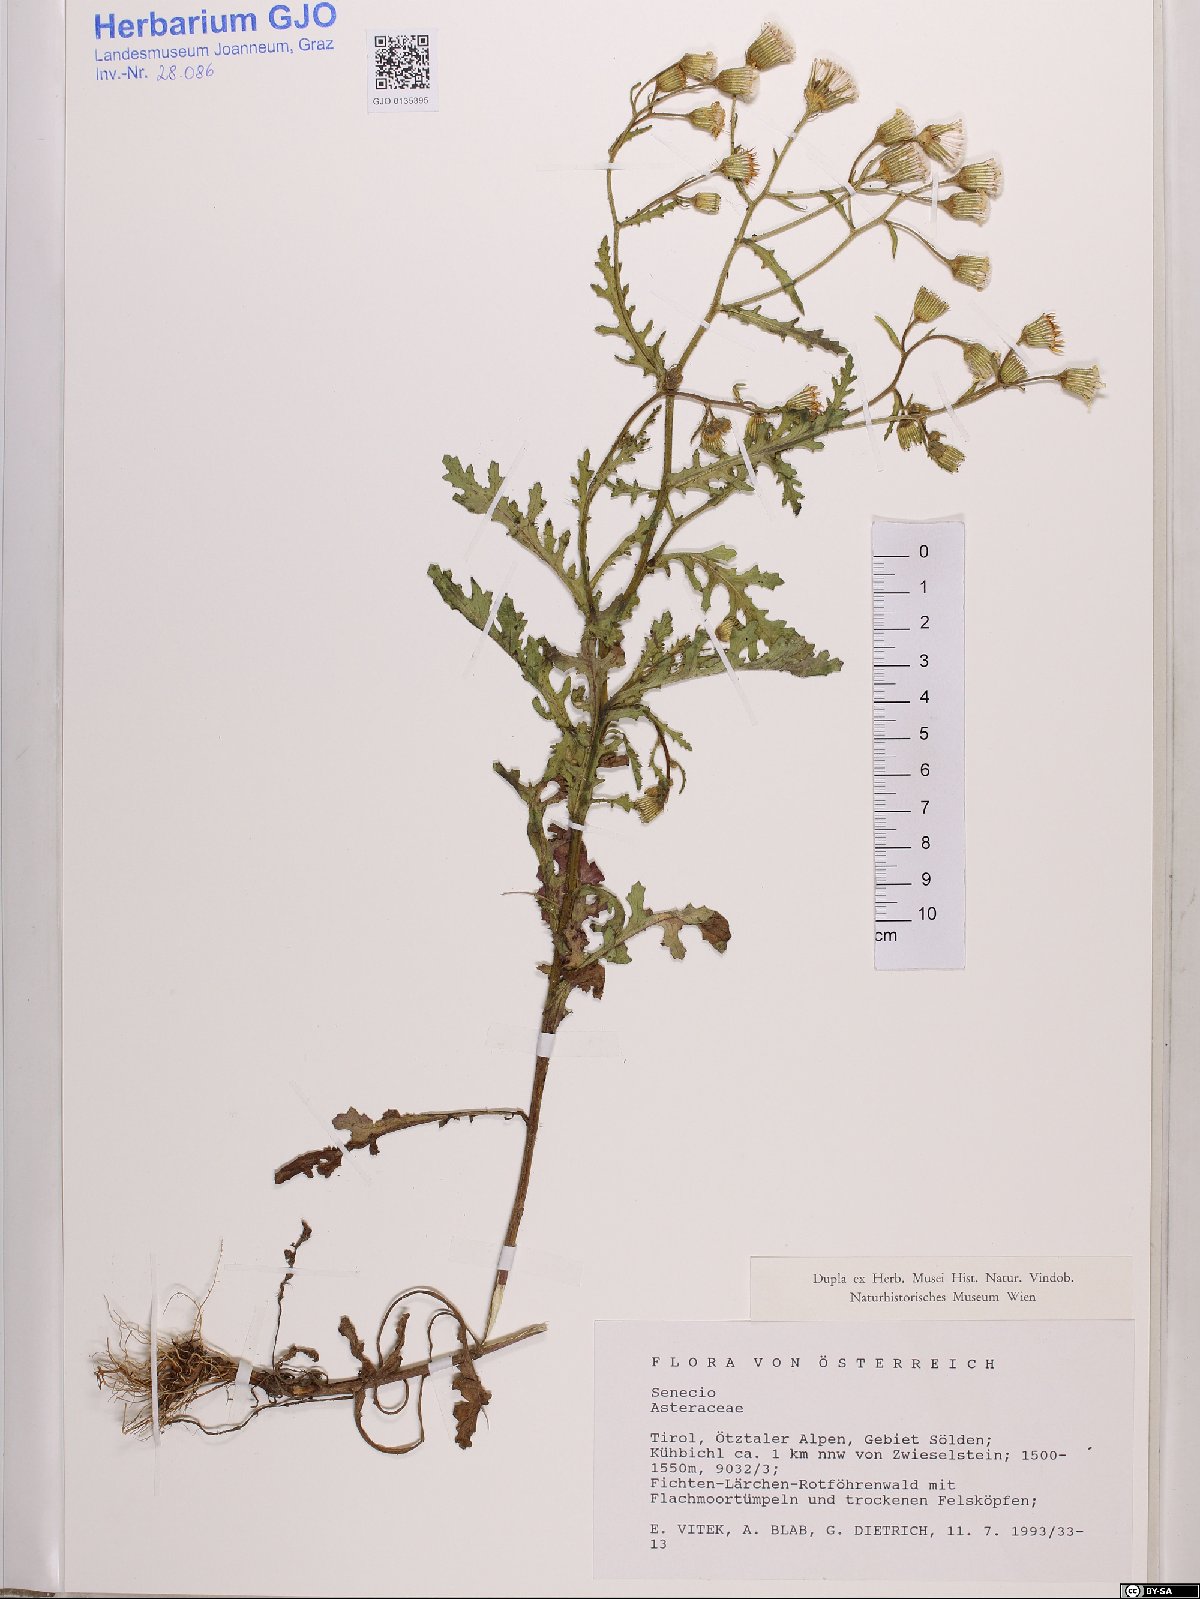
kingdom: Plantae
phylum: Tracheophyta
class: Magnoliopsida
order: Asterales
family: Asteraceae
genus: Senecio
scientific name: Senecio
